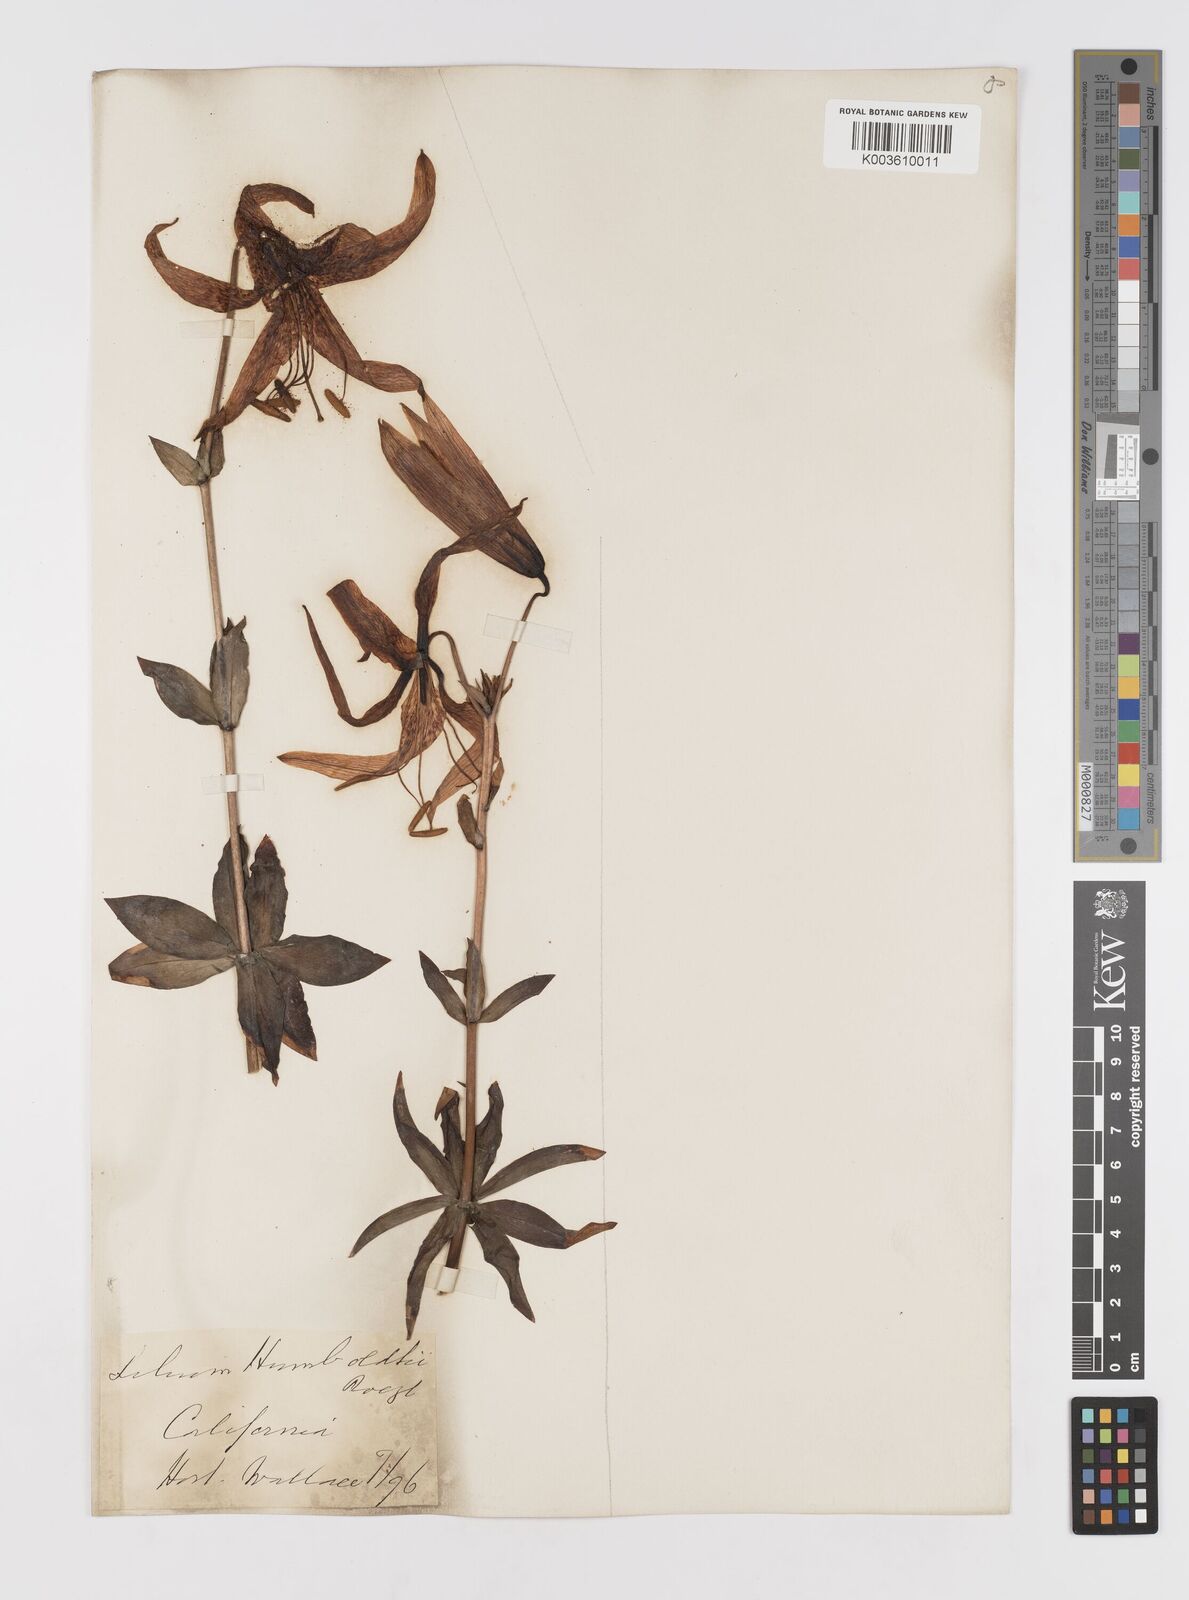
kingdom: Plantae
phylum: Tracheophyta
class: Liliopsida
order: Liliales
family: Liliaceae
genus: Lilium
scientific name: Lilium humboldtii
